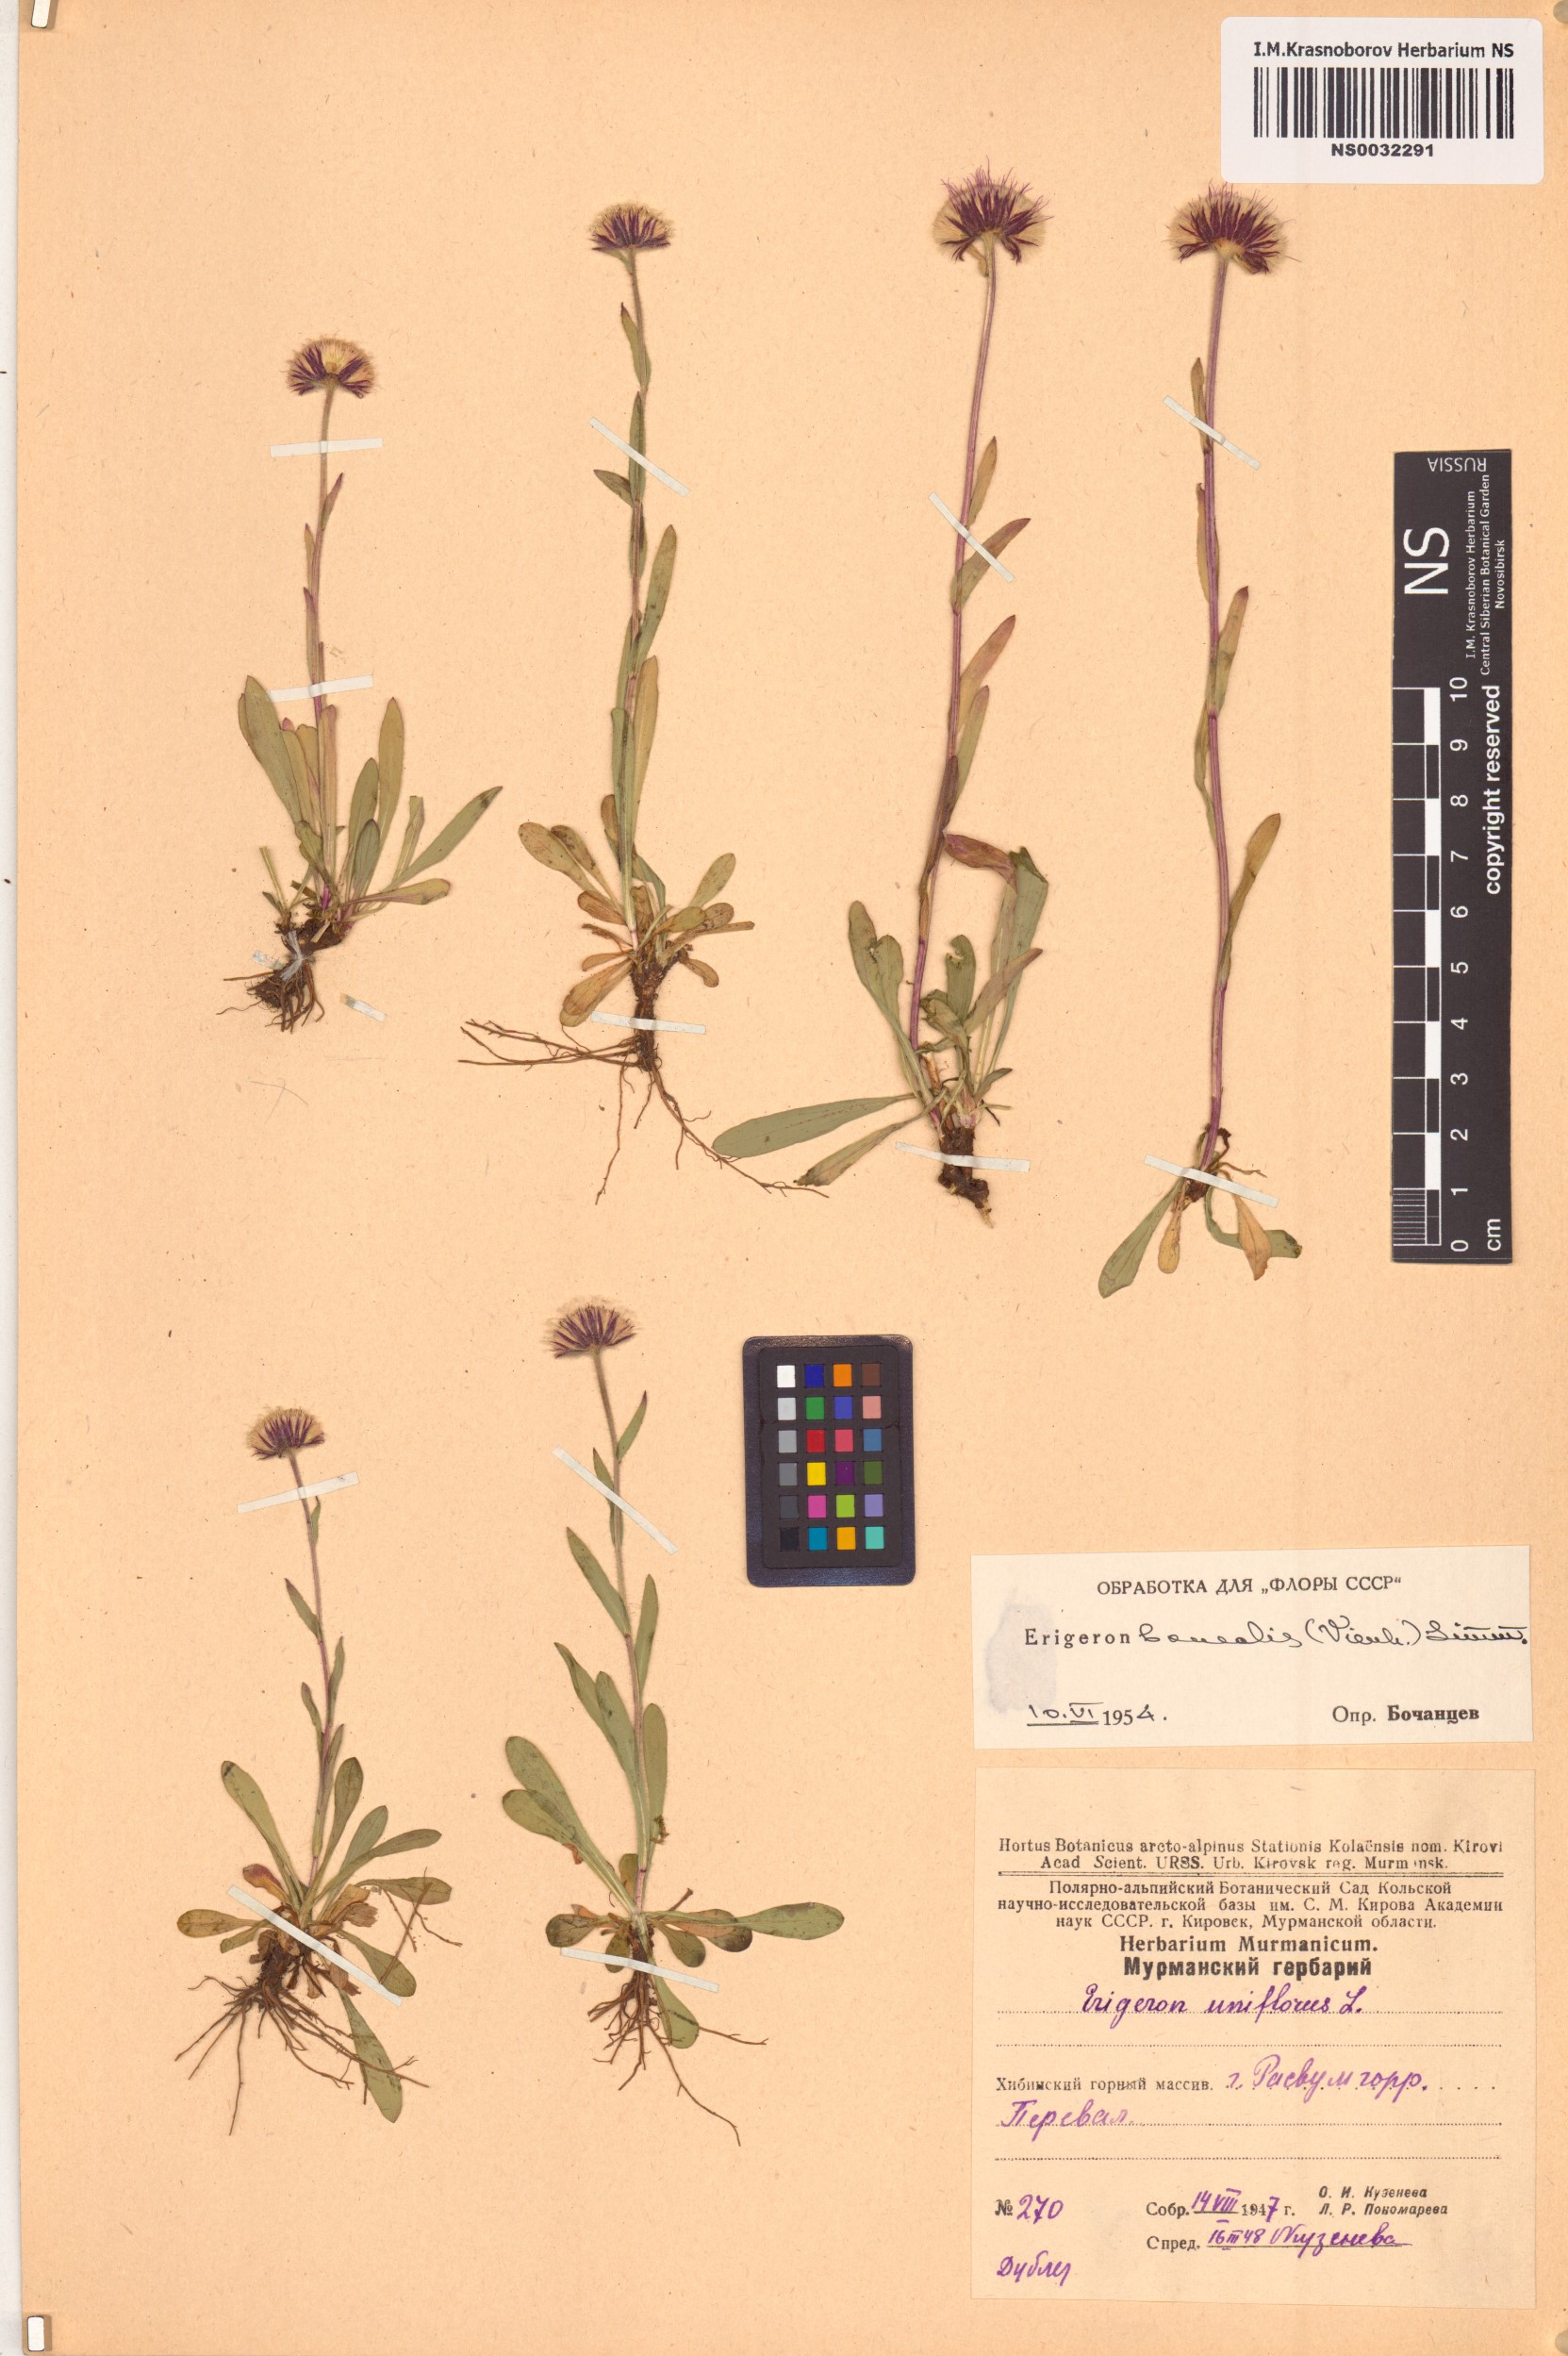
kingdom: Plantae
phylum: Tracheophyta
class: Magnoliopsida
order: Asterales
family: Asteraceae
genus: Erigeron
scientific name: Erigeron borealis
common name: Alpine fleabane
